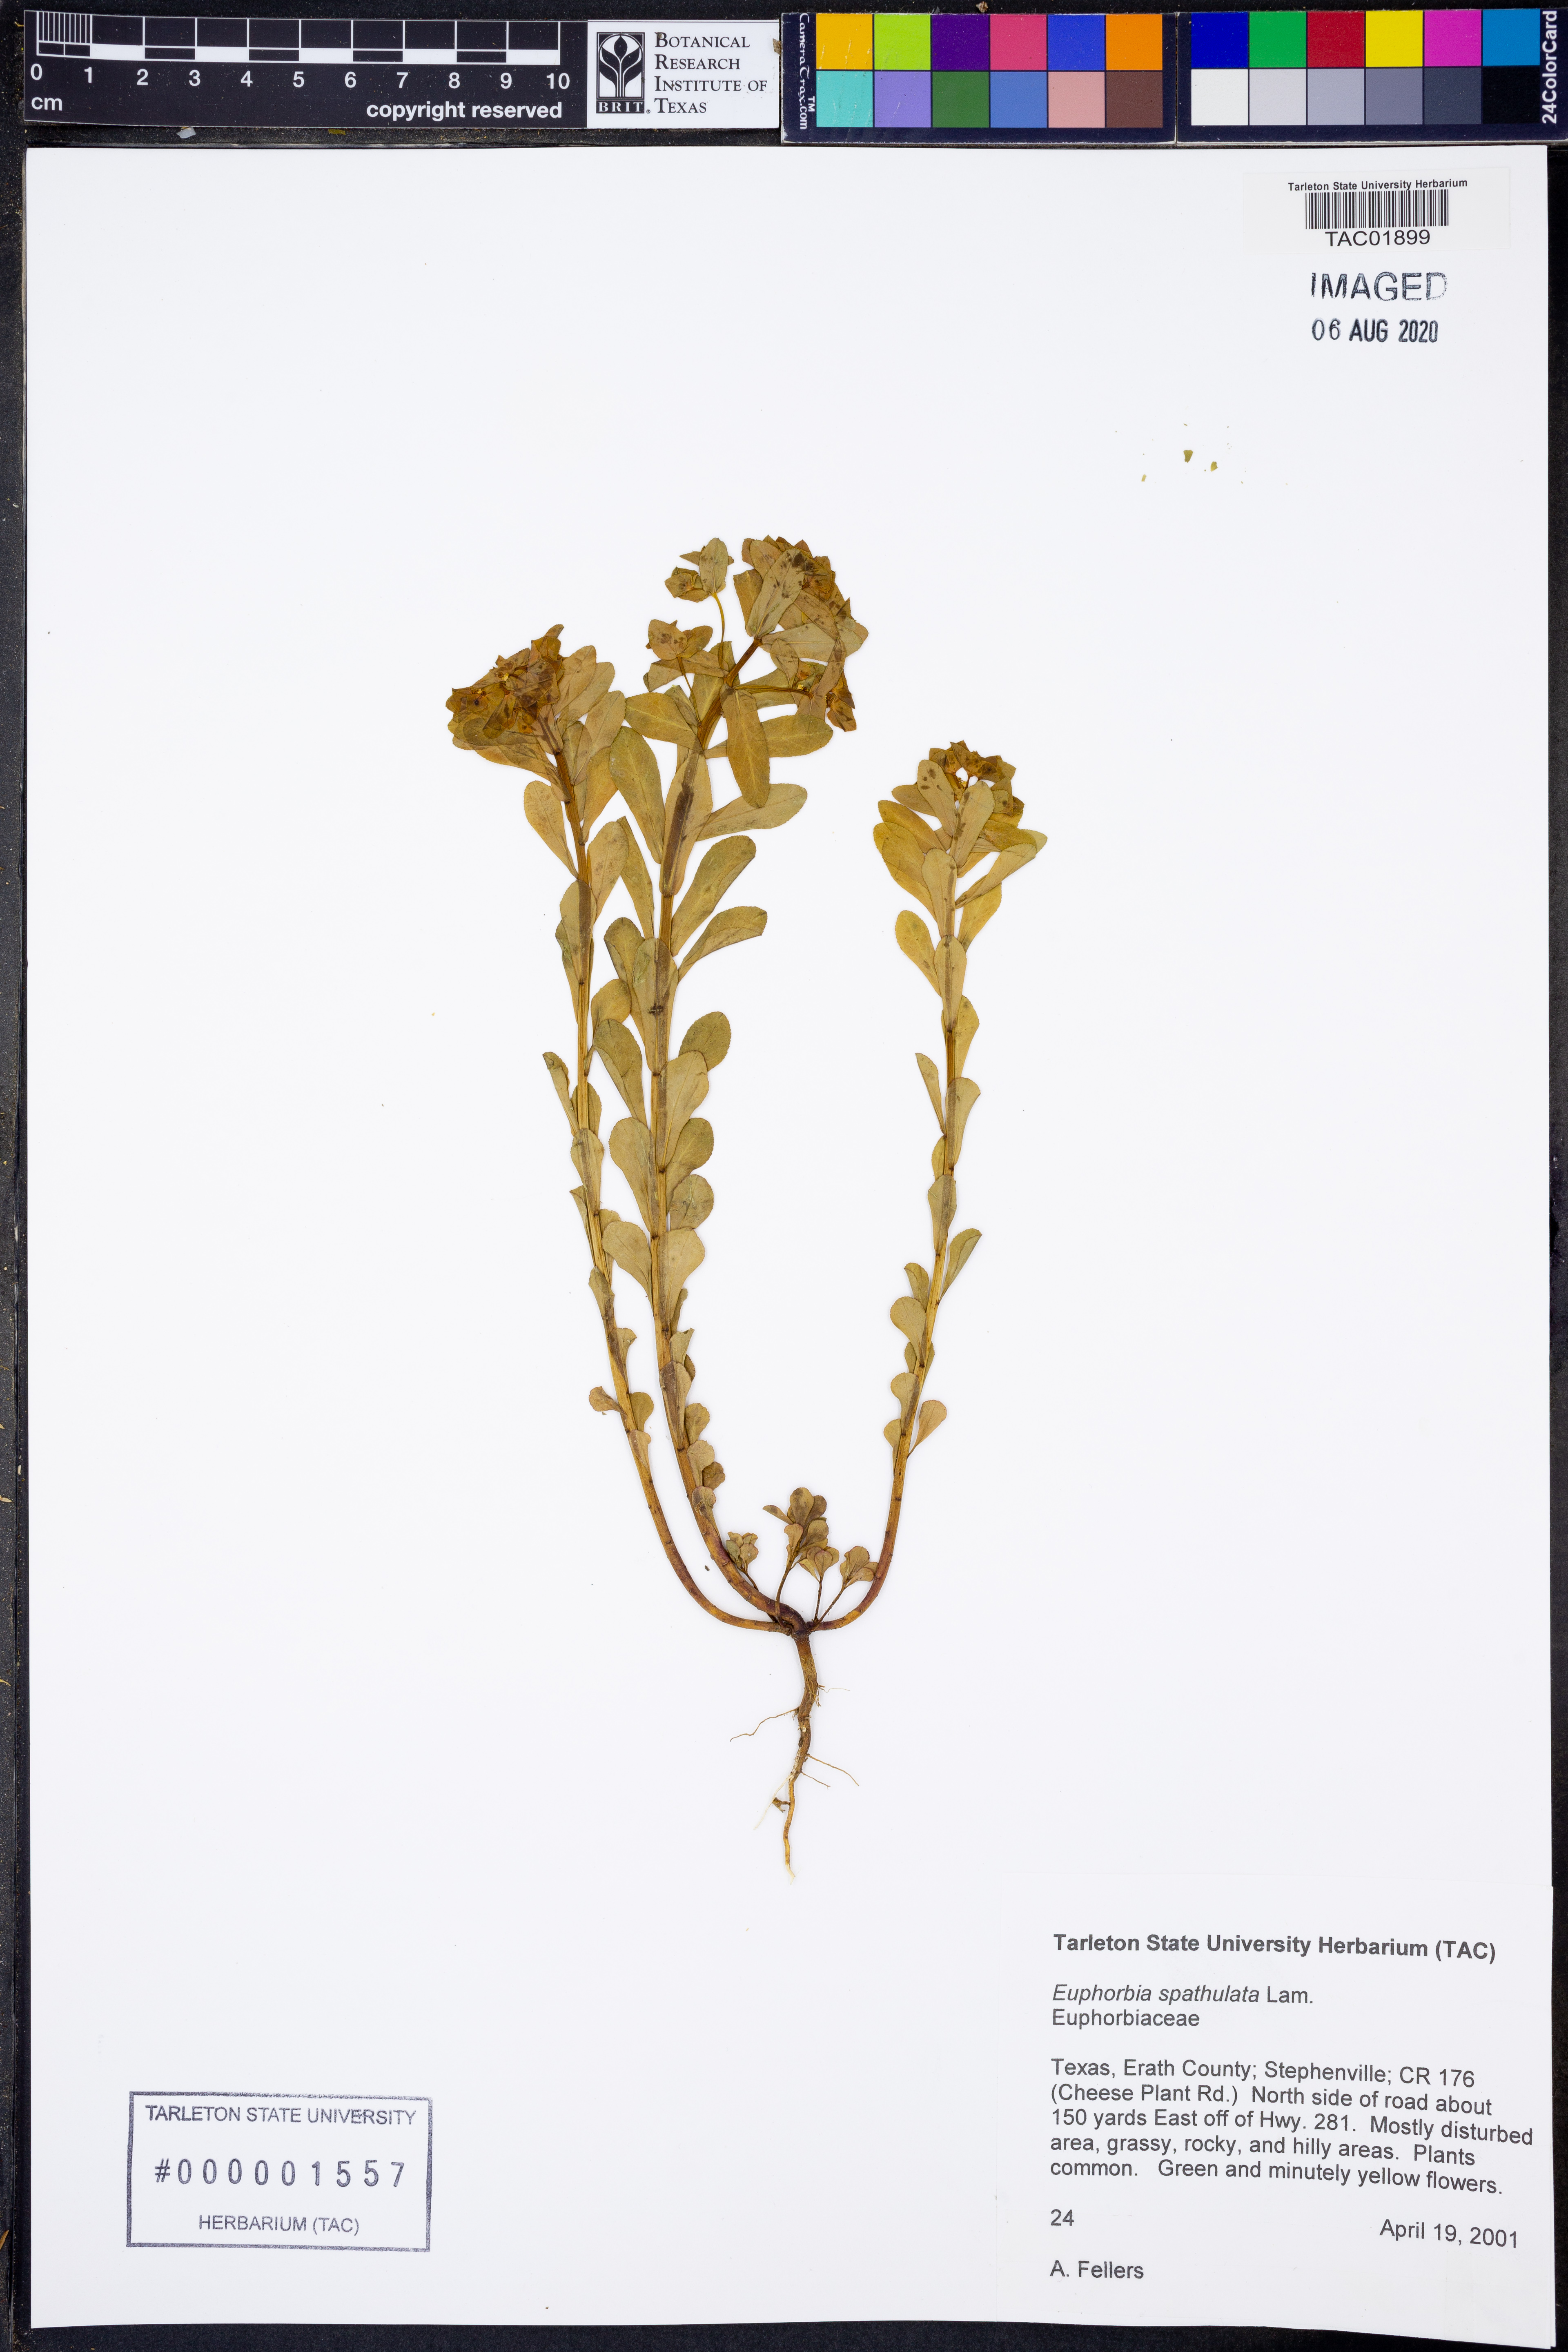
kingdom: Plantae
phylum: Tracheophyta
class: Magnoliopsida
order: Malpighiales
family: Euphorbiaceae
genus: Euphorbia
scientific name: Euphorbia spathulata
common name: Blunt spurge
